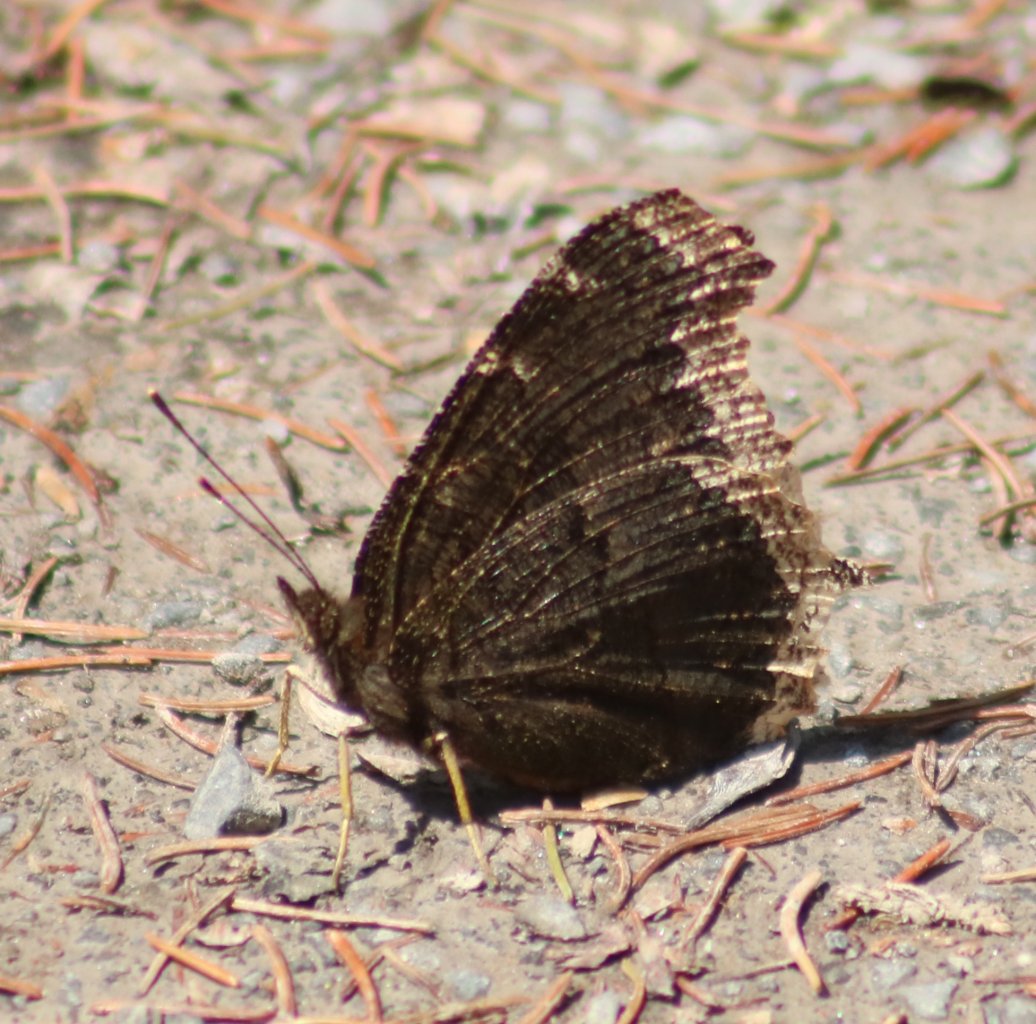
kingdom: Animalia
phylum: Arthropoda
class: Insecta
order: Lepidoptera
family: Nymphalidae
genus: Nymphalis
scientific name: Nymphalis antiopa
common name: Mourning Cloak
